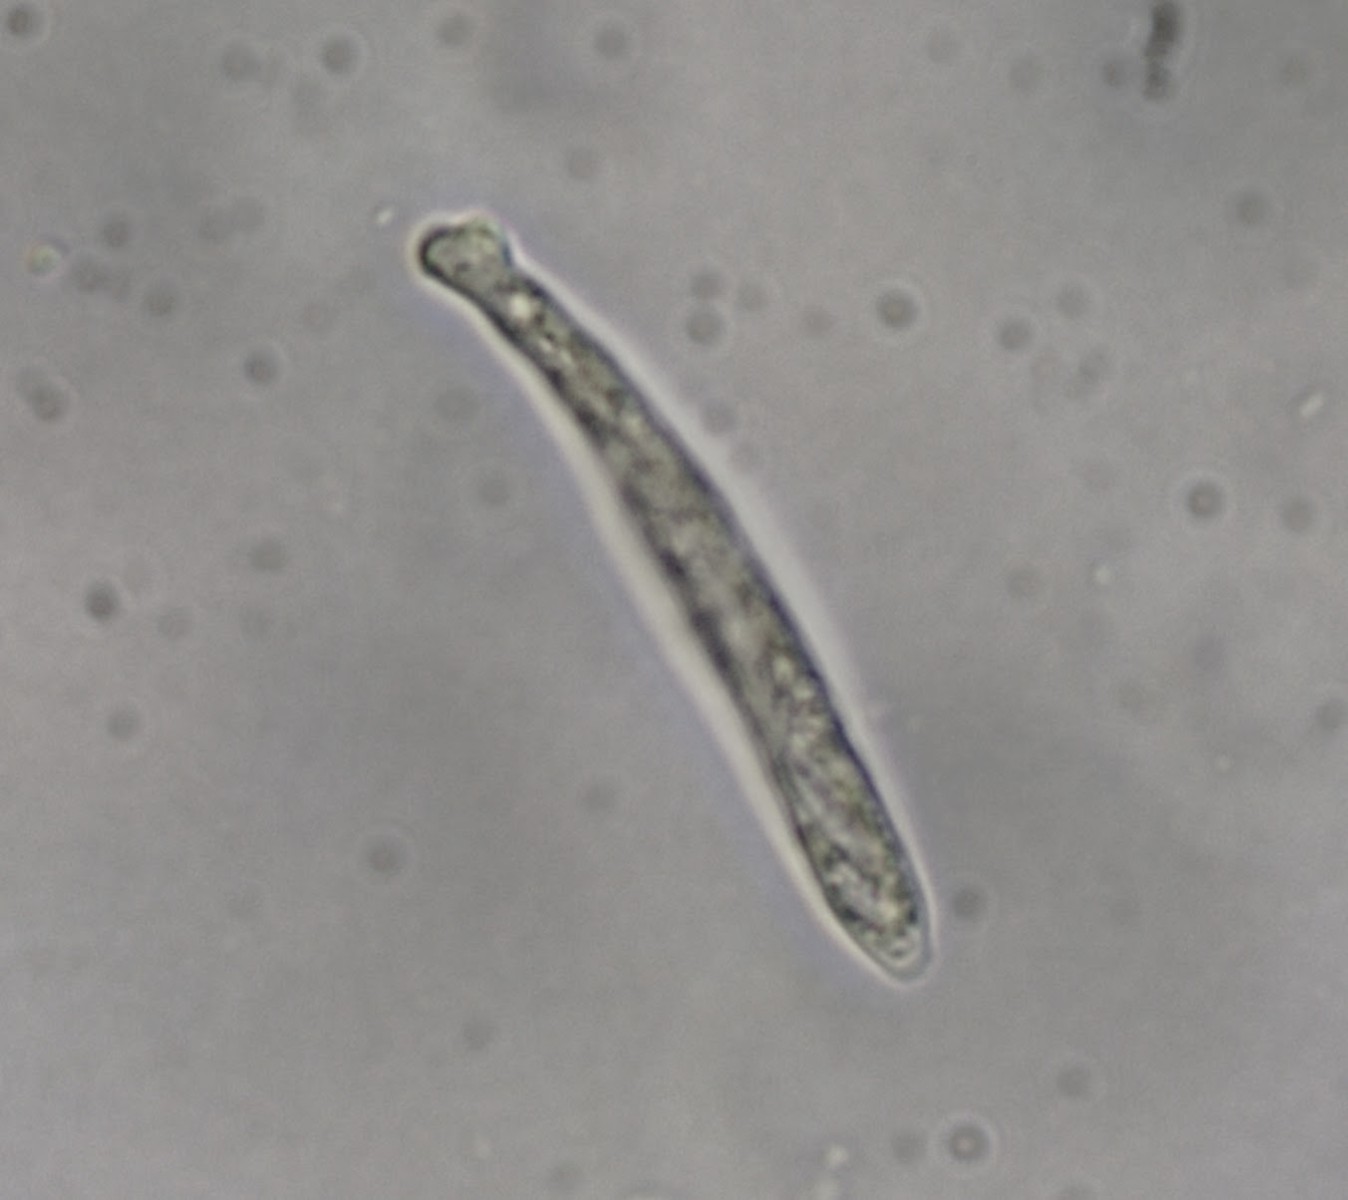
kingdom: Fungi
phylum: Ascomycota
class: Leotiomycetes
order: Helotiales
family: Lachnaceae
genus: Lachnum
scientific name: Lachnum virgineum
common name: jomfru-frynseskive
